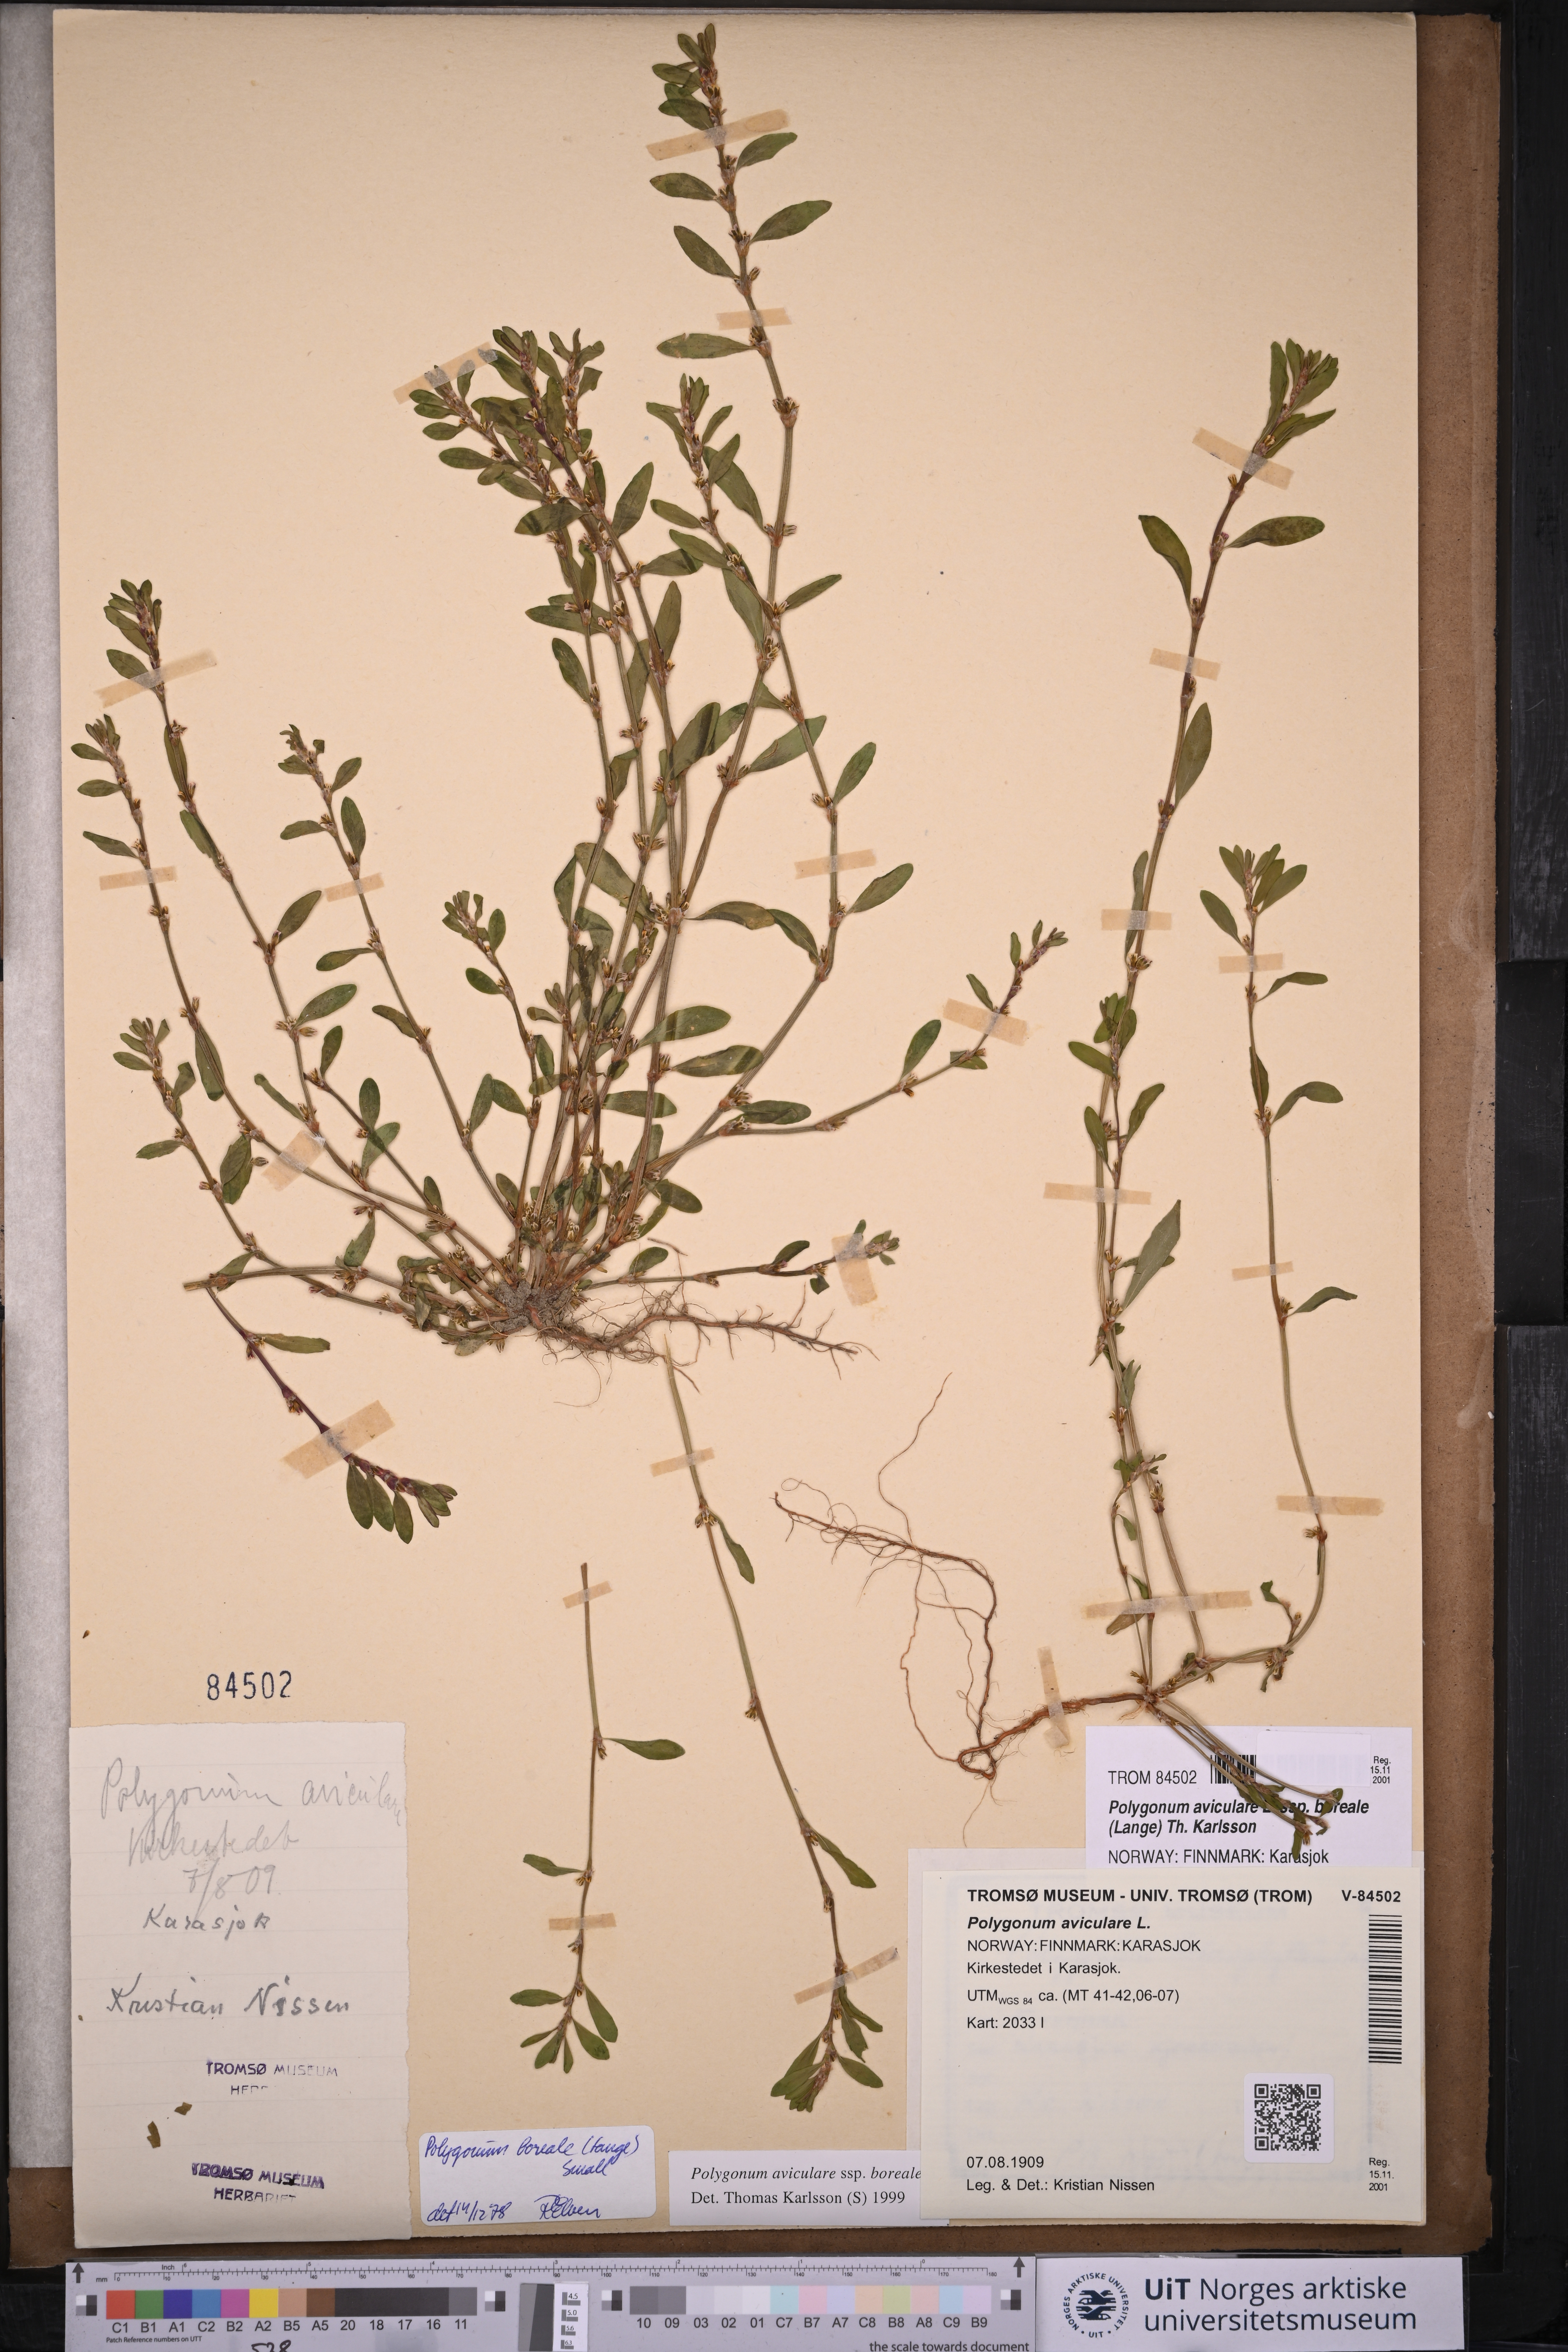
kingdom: Plantae
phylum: Tracheophyta
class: Magnoliopsida
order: Caryophyllales
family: Polygonaceae
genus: Polygonum
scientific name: Polygonum boreale
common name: Northern knotgrass
